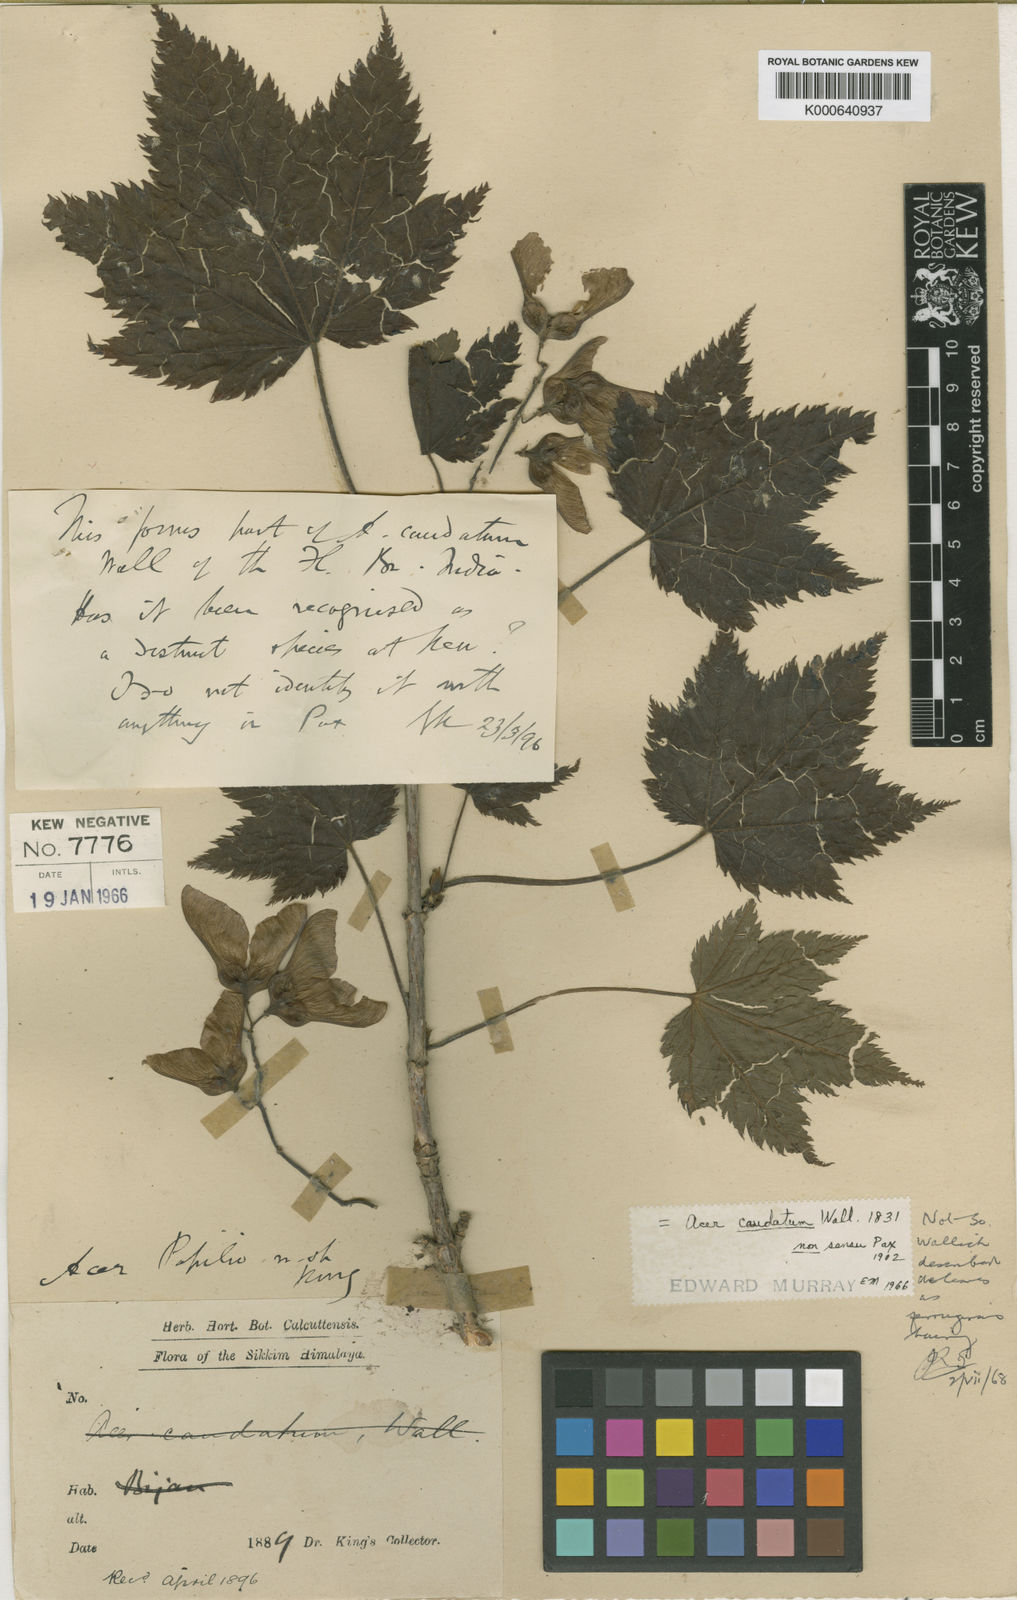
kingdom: Plantae
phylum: Tracheophyta
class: Magnoliopsida
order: Sapindales
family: Sapindaceae
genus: Acer
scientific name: Acer caudatum
